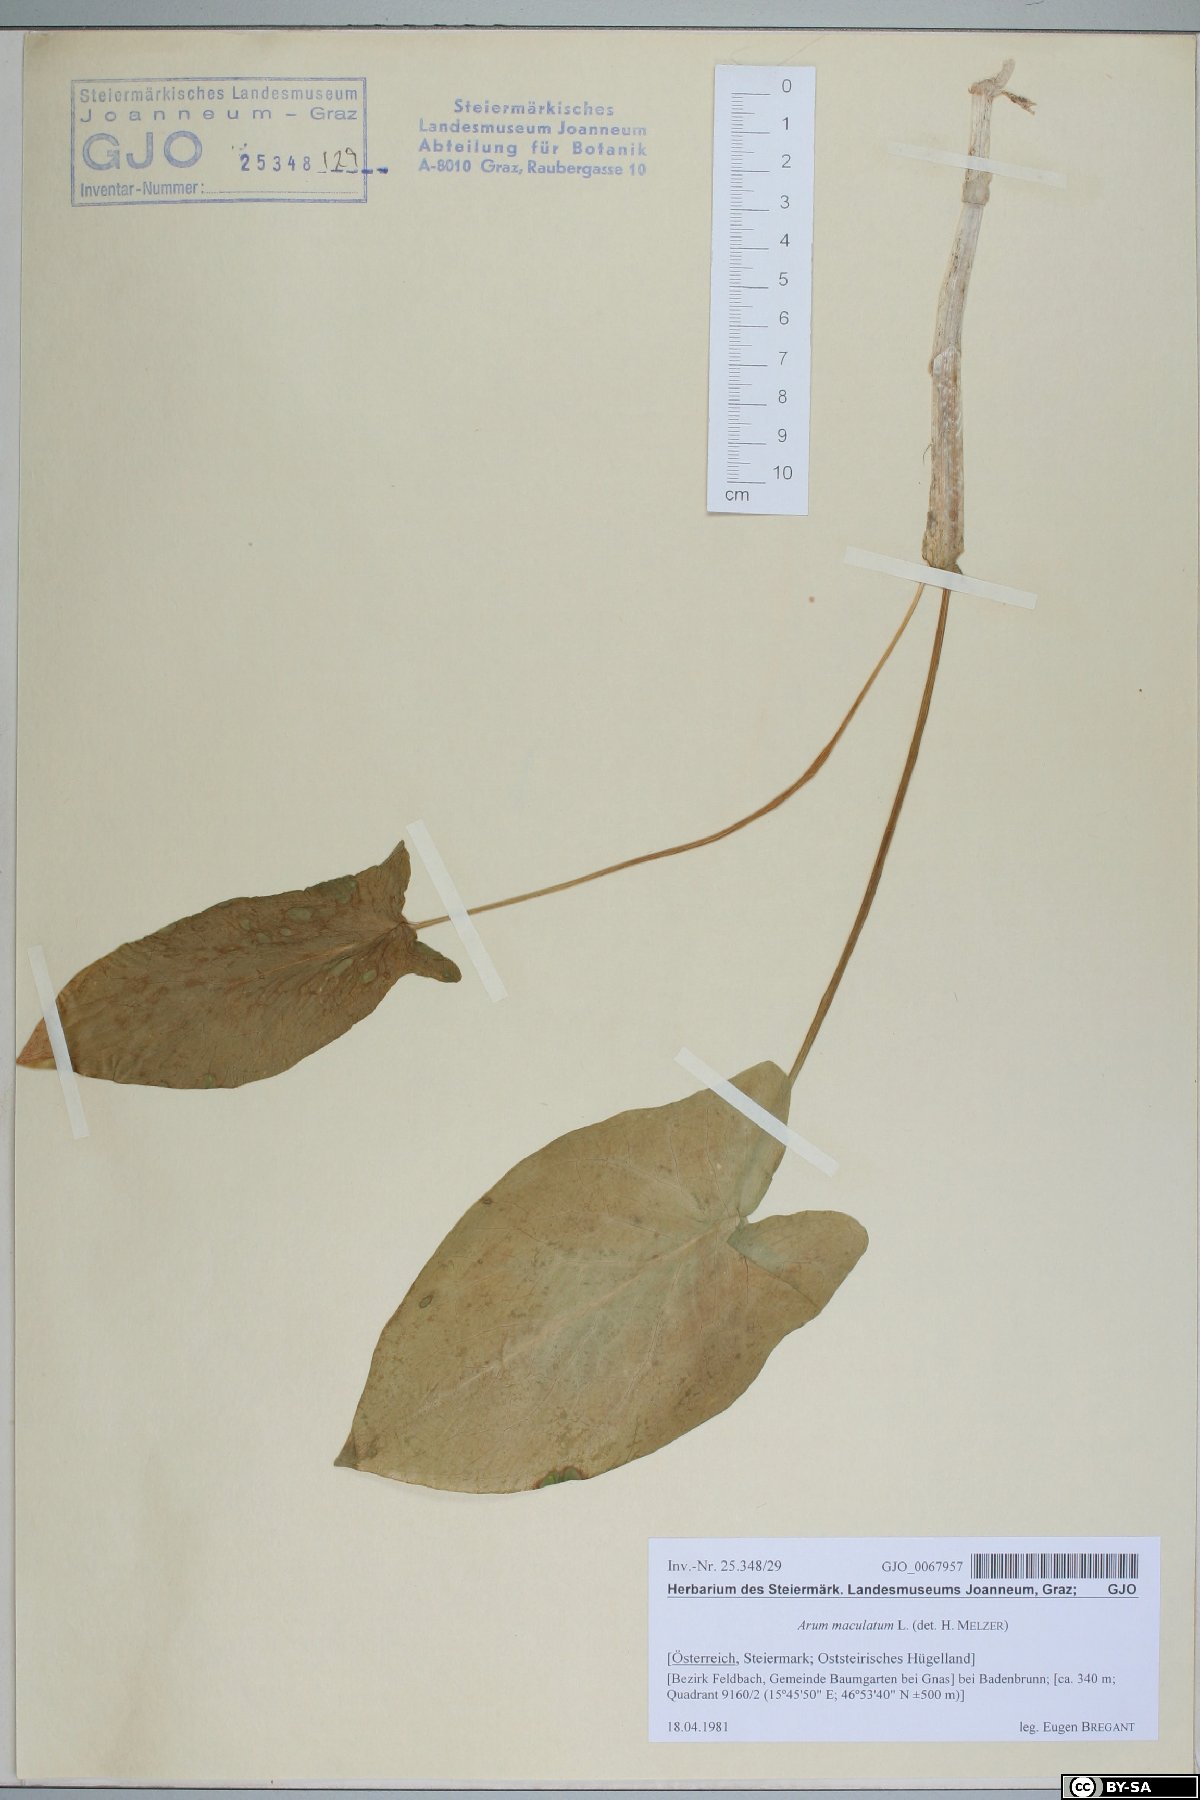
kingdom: Plantae
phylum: Tracheophyta
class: Liliopsida
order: Alismatales
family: Araceae
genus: Arum
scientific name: Arum maculatum
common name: Lords-and-ladies
